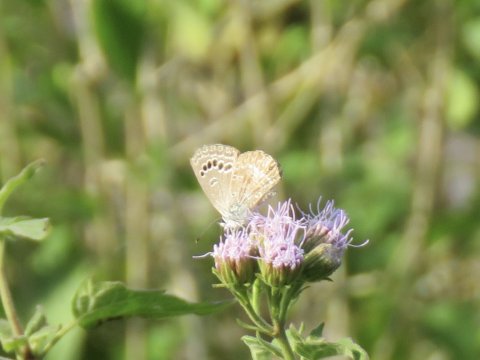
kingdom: Animalia
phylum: Arthropoda
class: Insecta
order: Lepidoptera
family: Lycaenidae
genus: Echinargus
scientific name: Echinargus isola
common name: Reakirt's Blue
